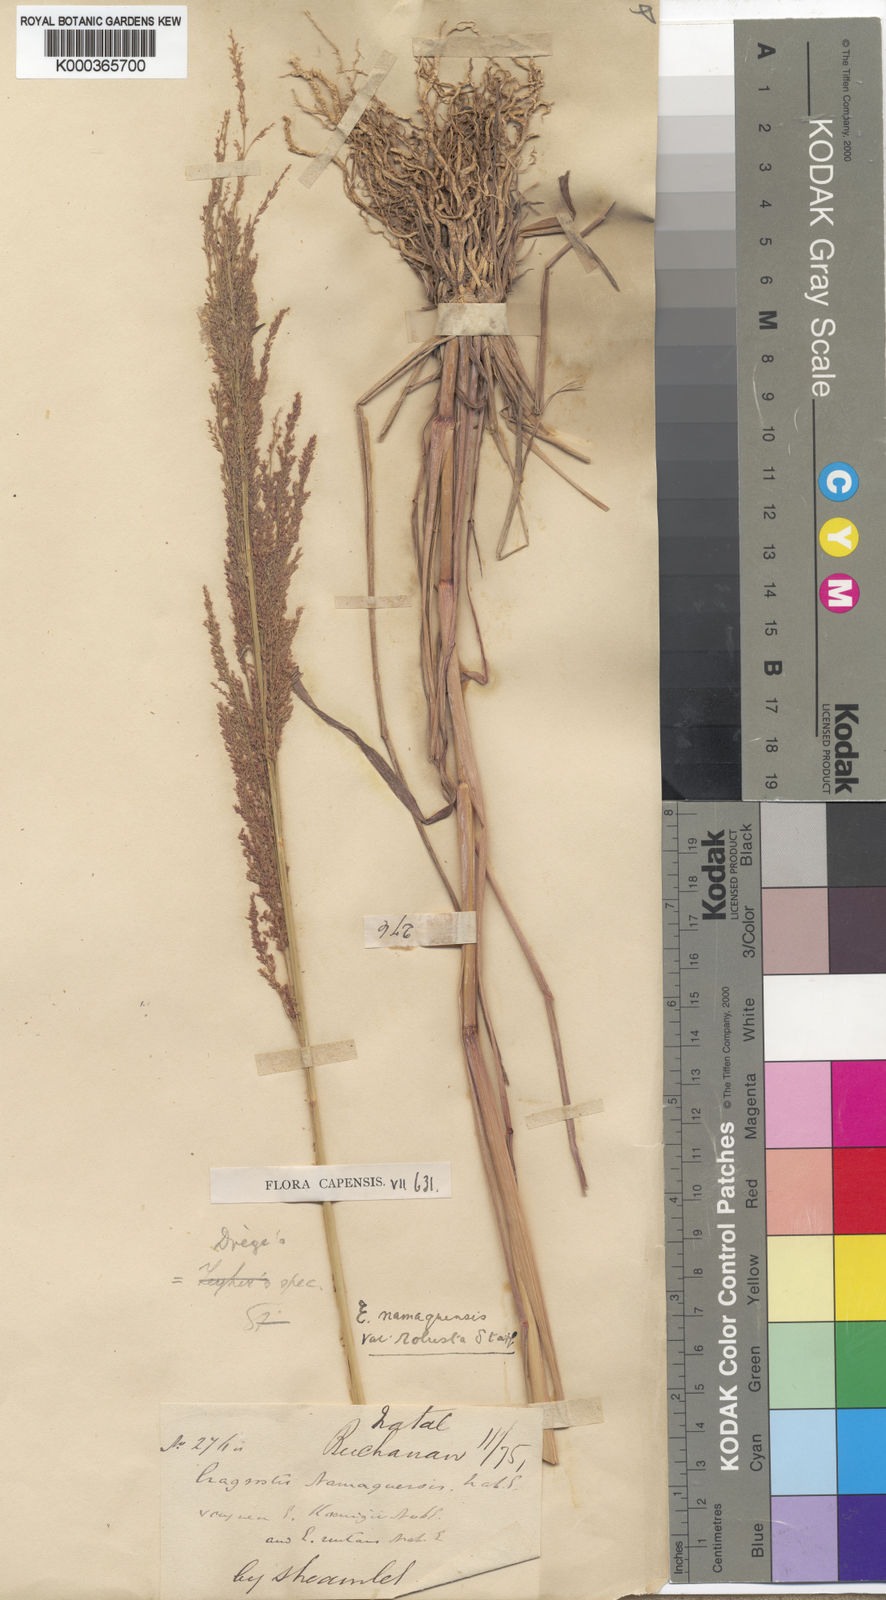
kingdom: Plantae
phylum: Tracheophyta
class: Liliopsida
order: Poales
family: Poaceae
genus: Eragrostis
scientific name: Eragrostis japonica
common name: Pond lovegrass
